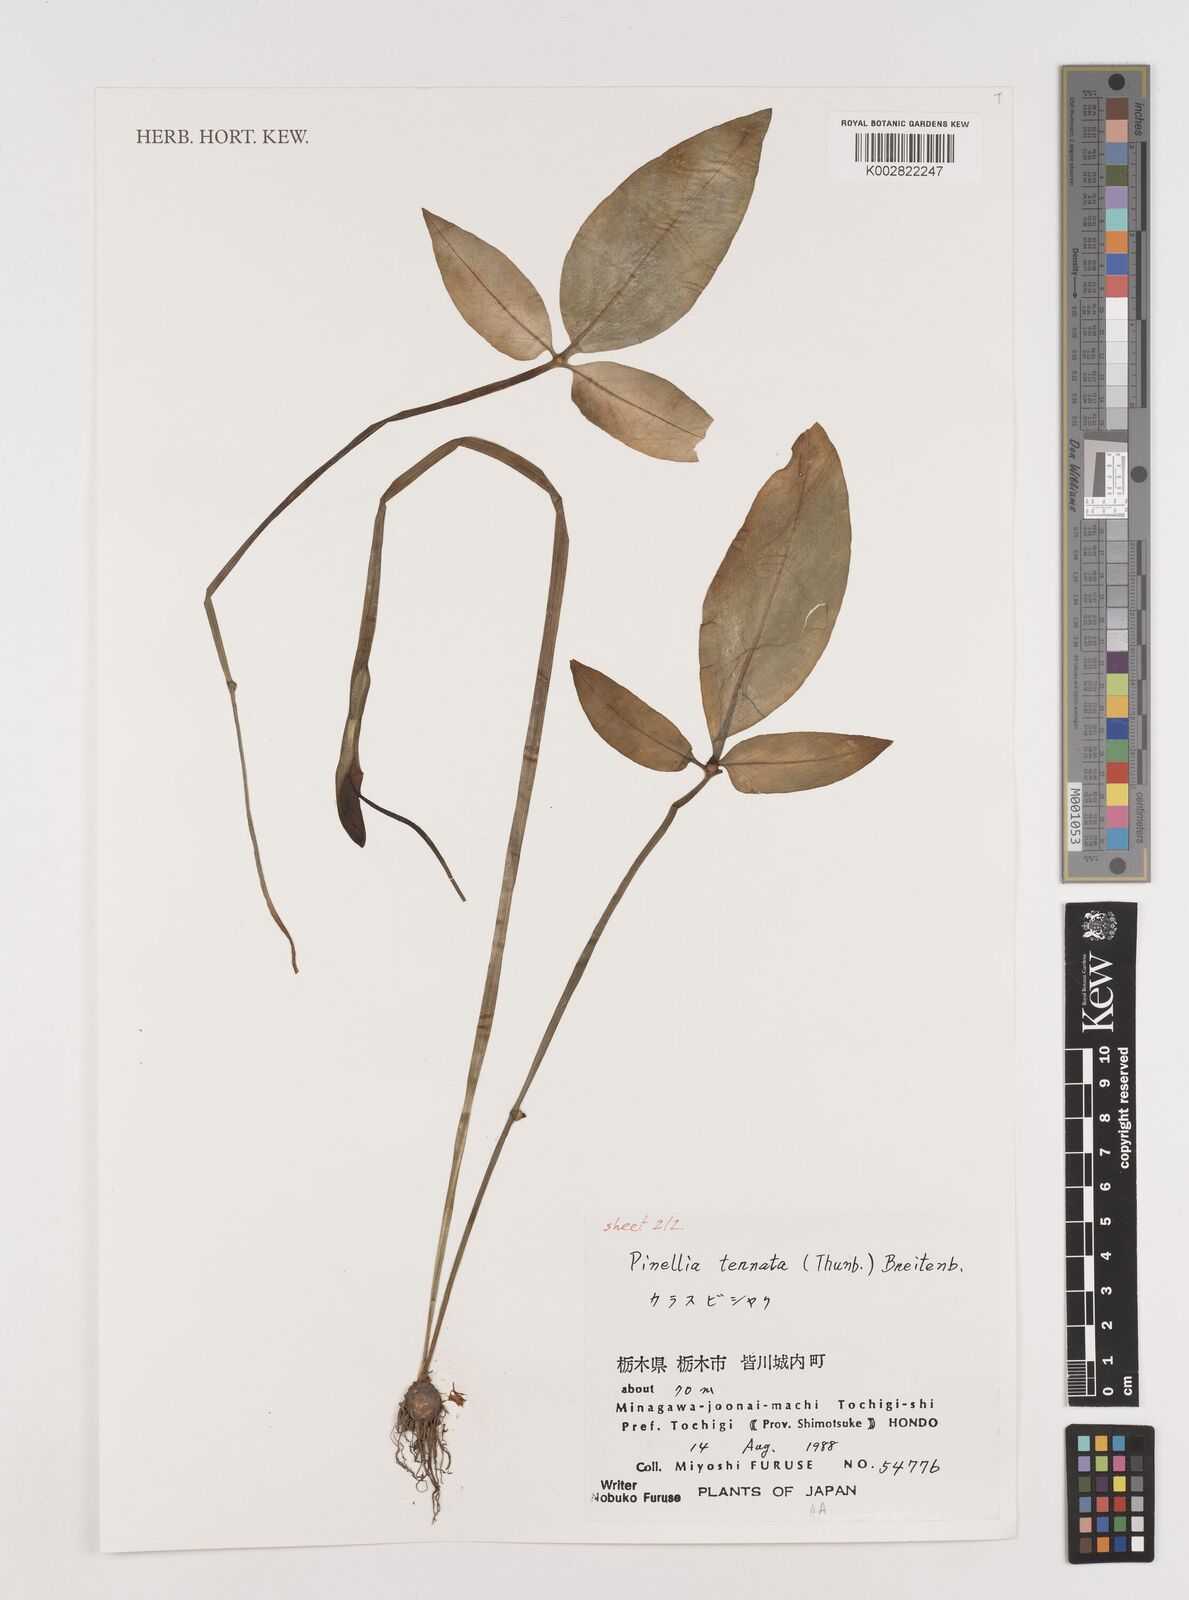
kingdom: Plantae
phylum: Tracheophyta
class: Liliopsida
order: Alismatales
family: Araceae
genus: Pinellia
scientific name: Pinellia ternata
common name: Pinellia
